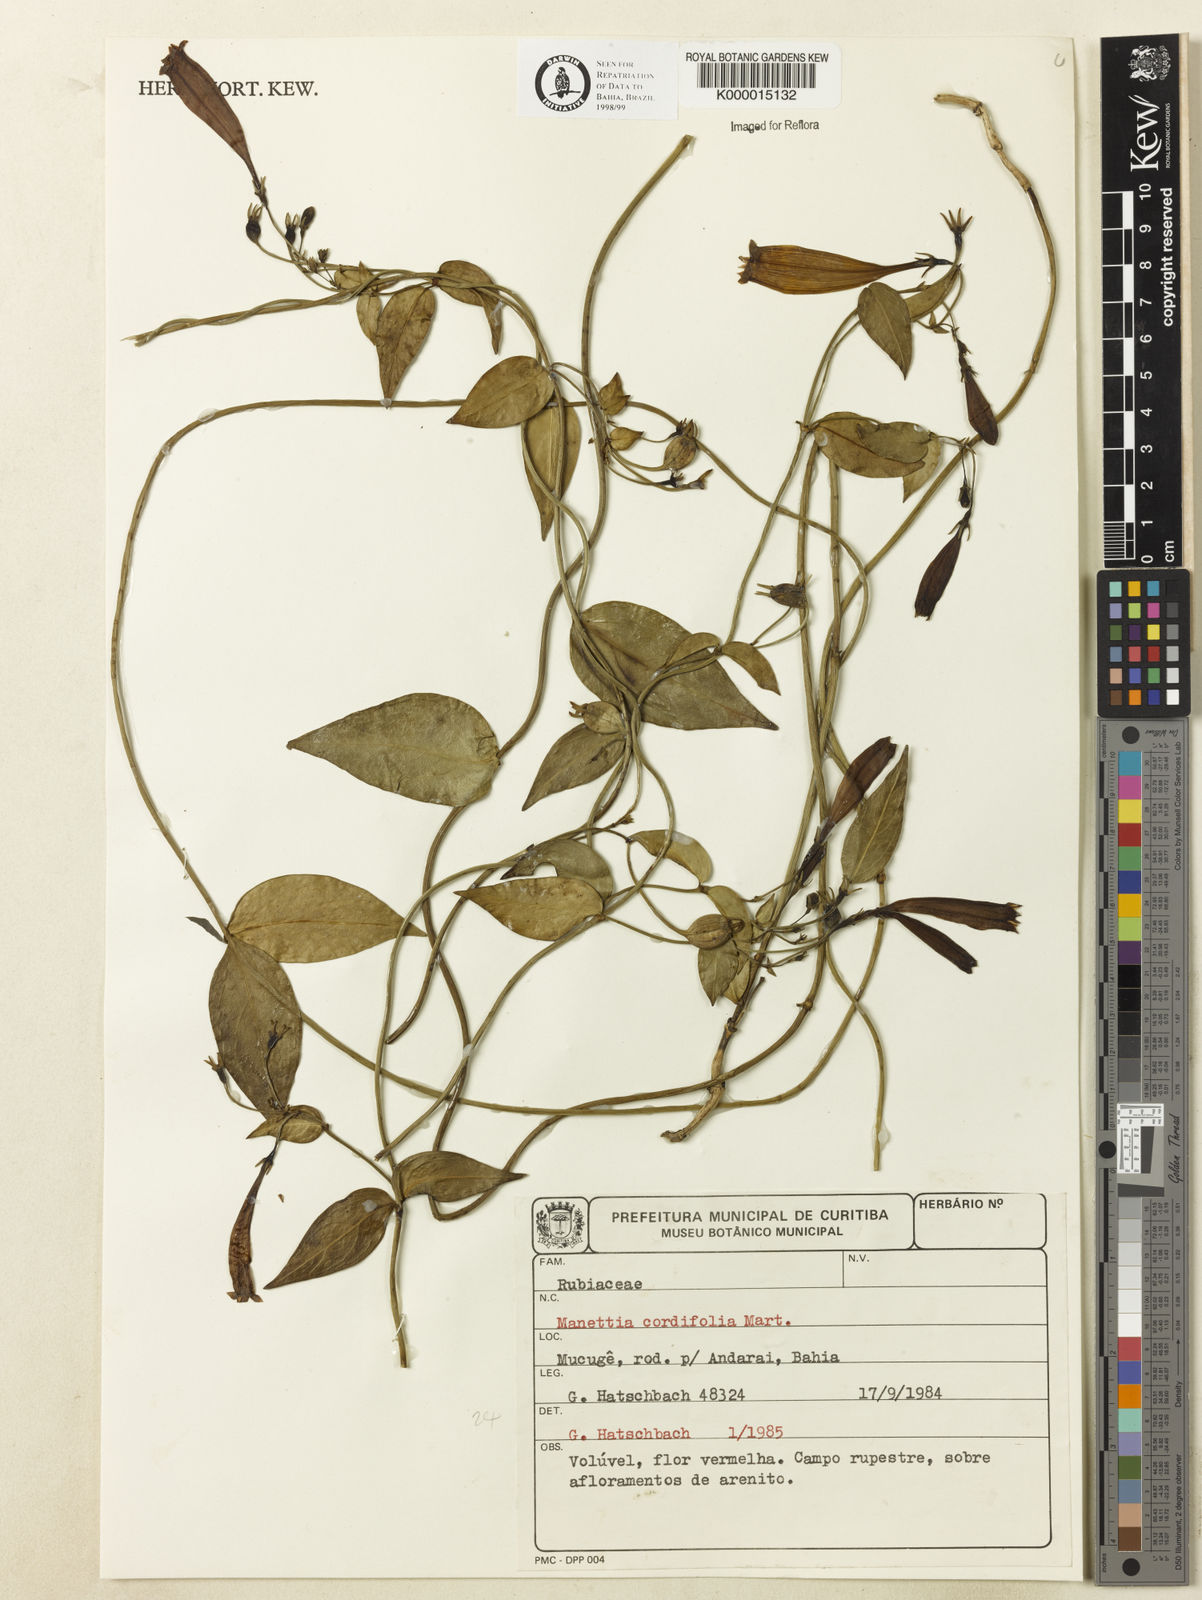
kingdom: Plantae
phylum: Tracheophyta
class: Magnoliopsida
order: Gentianales
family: Rubiaceae
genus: Manettia
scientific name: Manettia cordifolia
